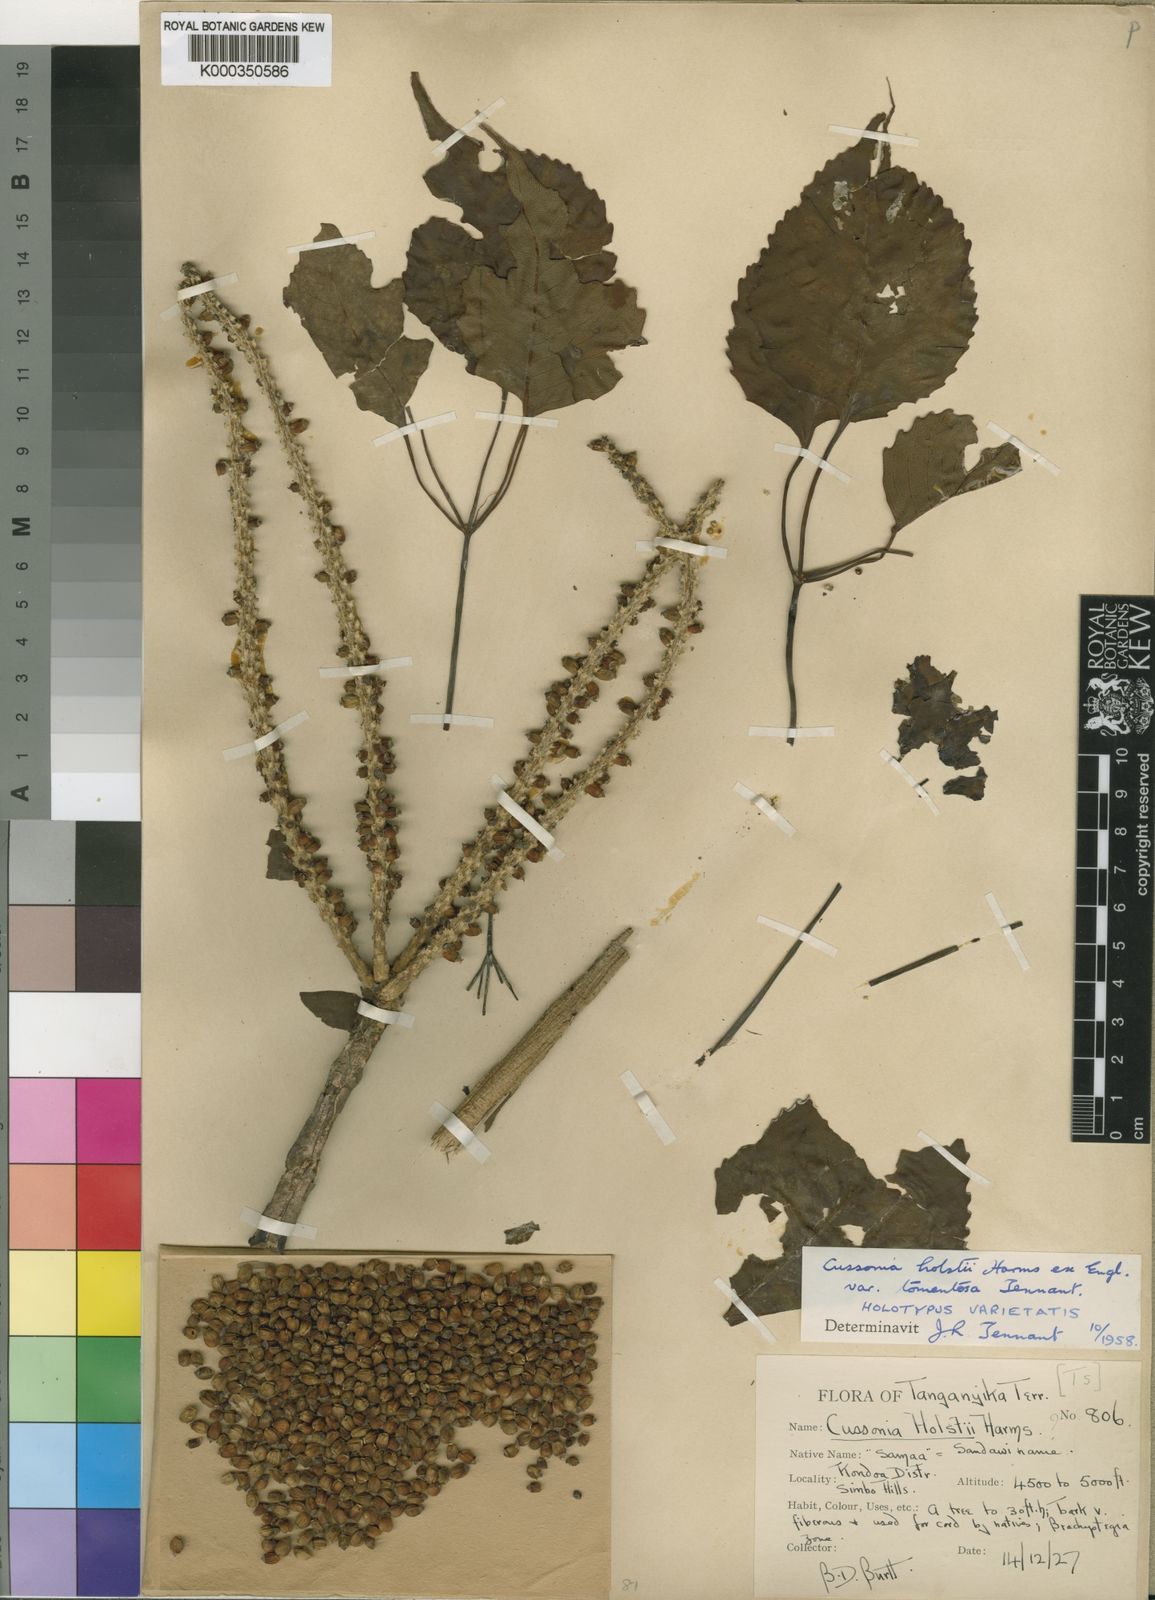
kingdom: Plantae
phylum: Tracheophyta
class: Magnoliopsida
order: Apiales
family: Araliaceae
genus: Cussonia
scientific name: Cussonia holstii
